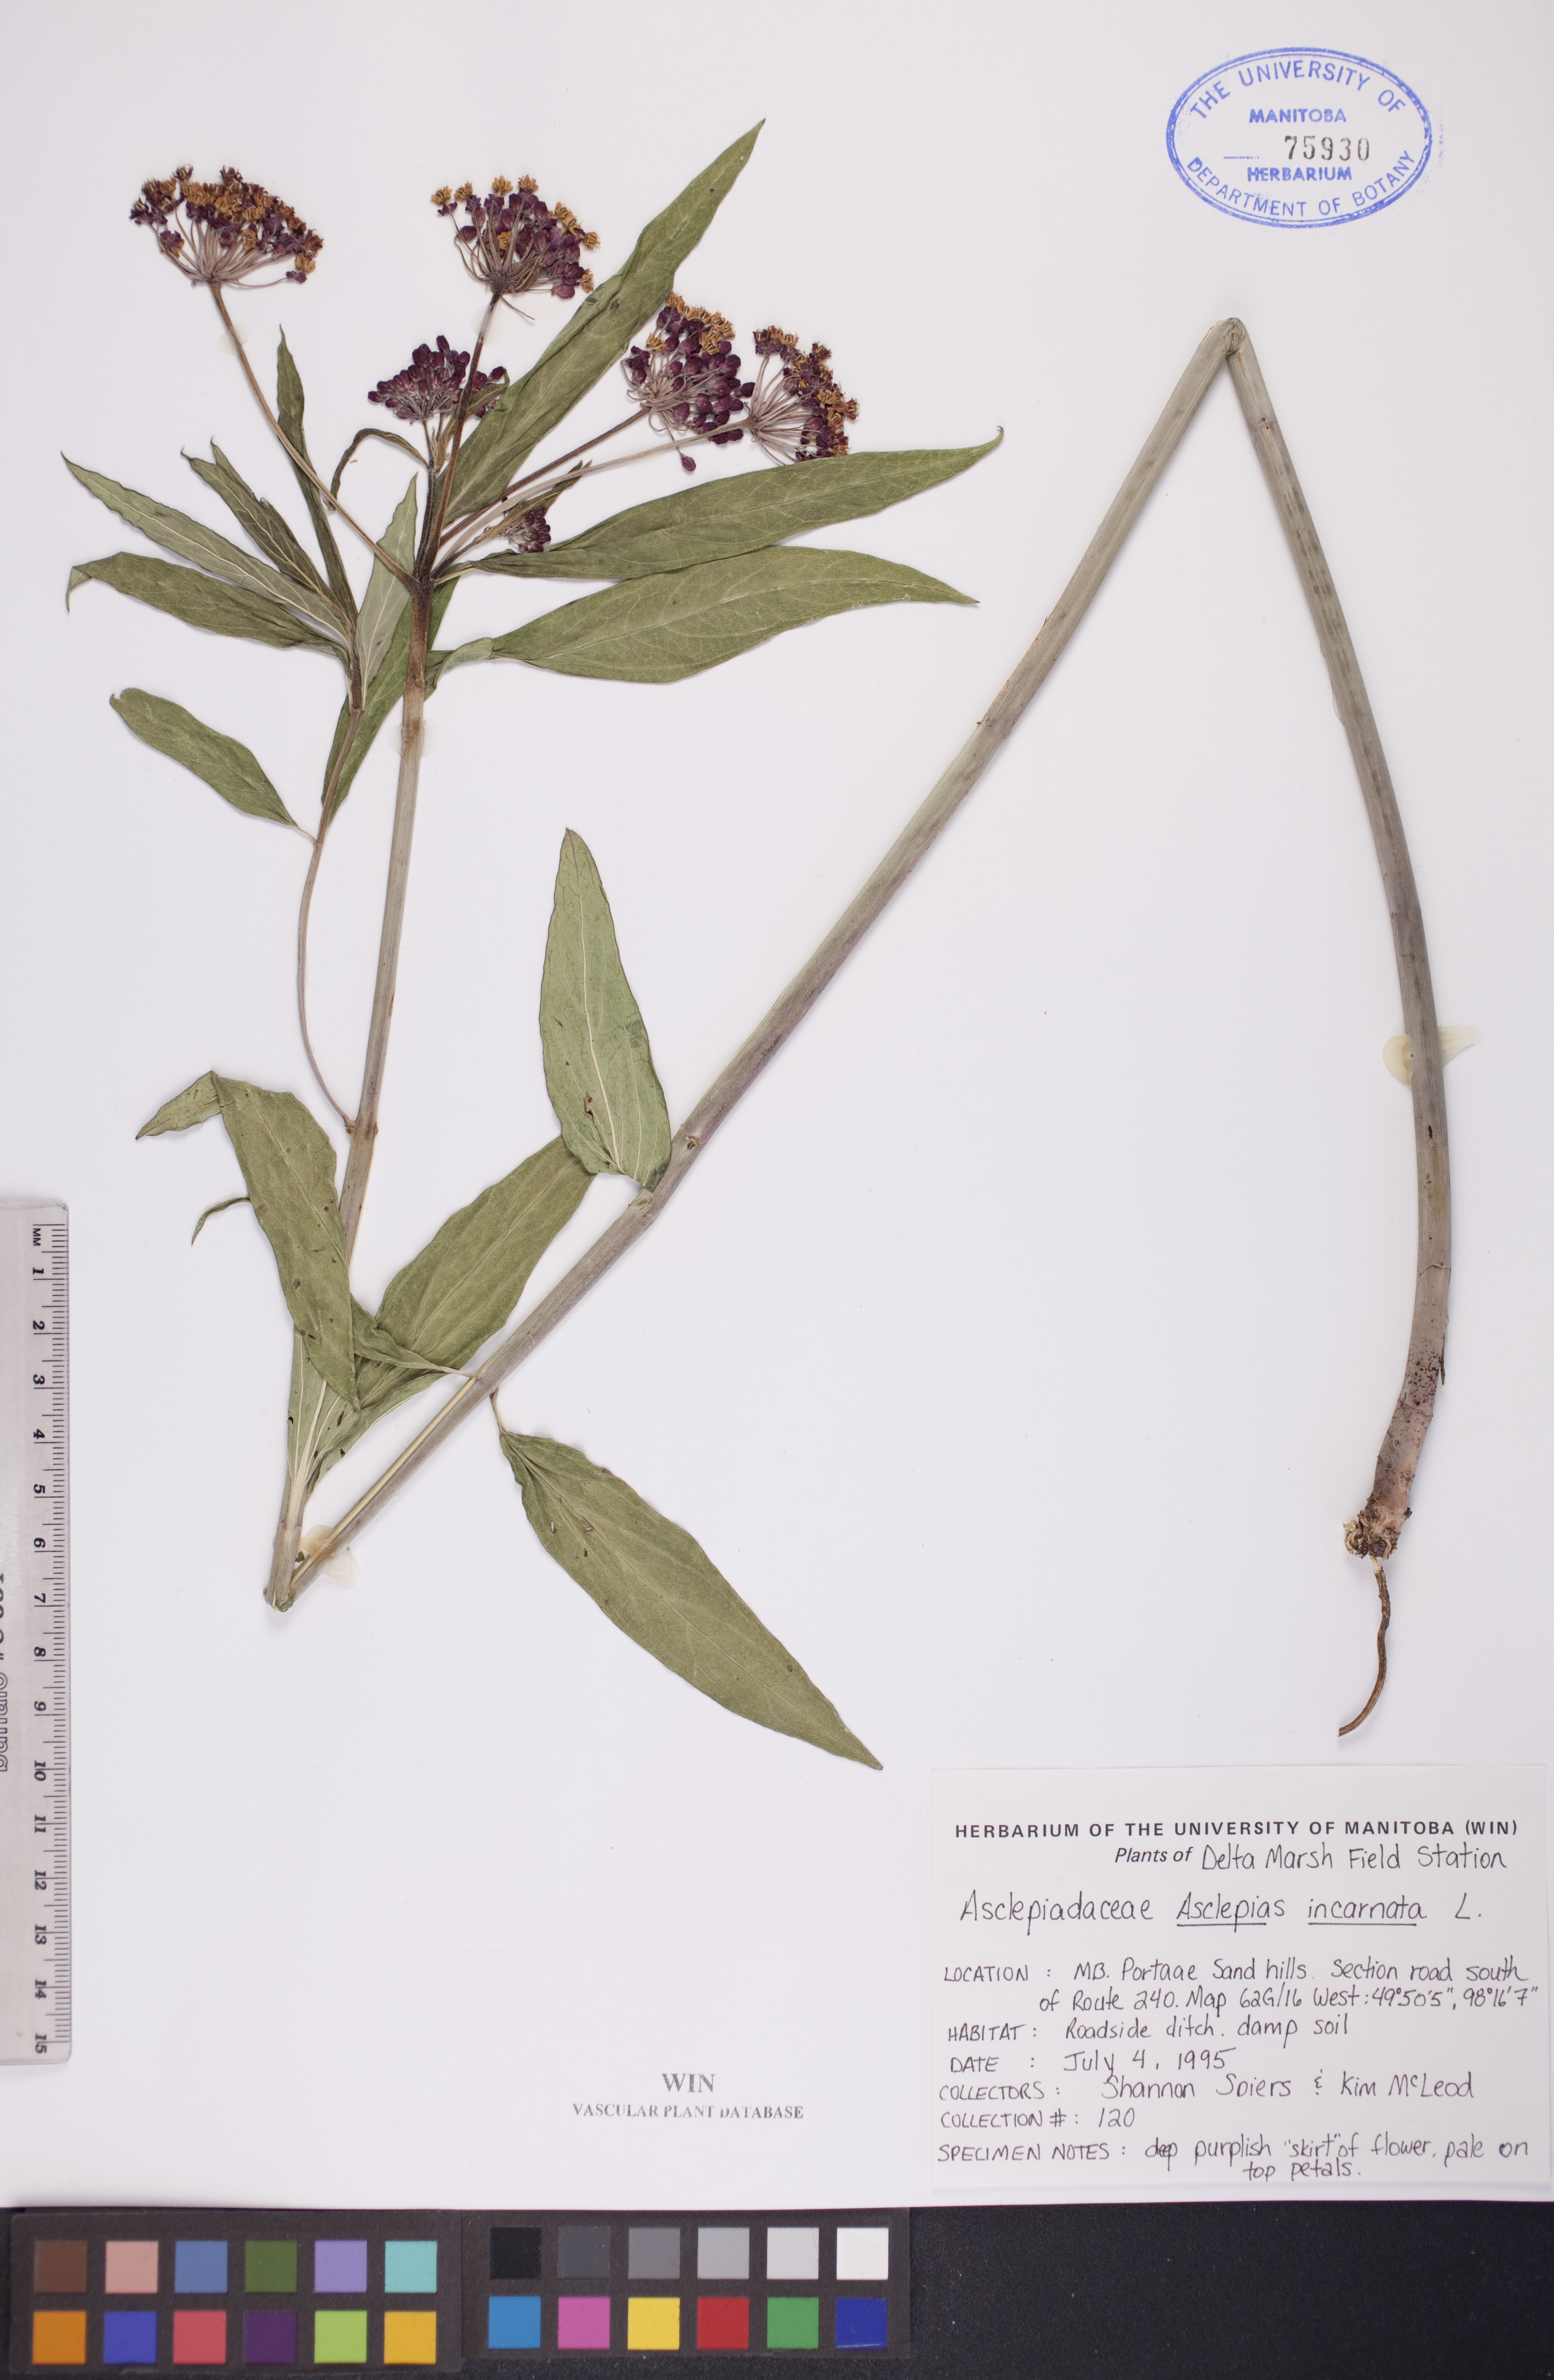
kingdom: Plantae
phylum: Tracheophyta
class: Magnoliopsida
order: Gentianales
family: Apocynaceae
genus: Asclepias
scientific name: Asclepias incarnata
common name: Swamp milkweed
